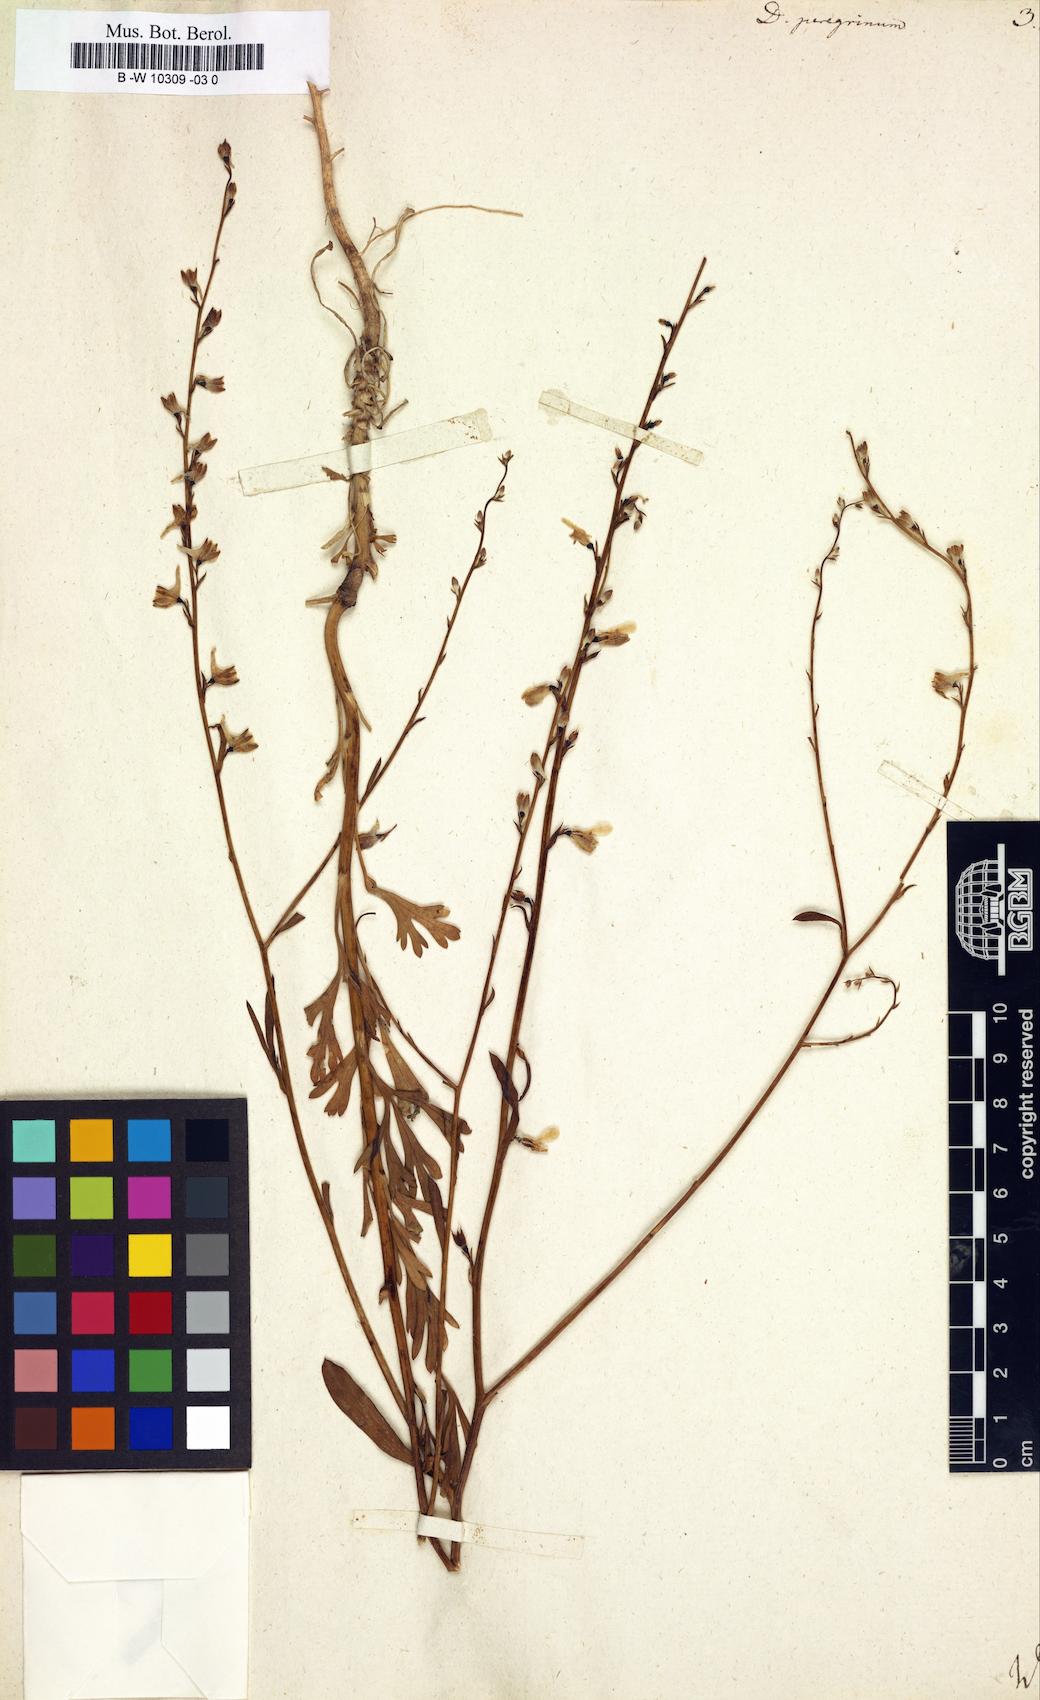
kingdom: Plantae
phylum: Tracheophyta
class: Magnoliopsida
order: Ranunculales
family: Ranunculaceae
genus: Delphinium
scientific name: Delphinium peregrinum
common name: Violet larkspur
